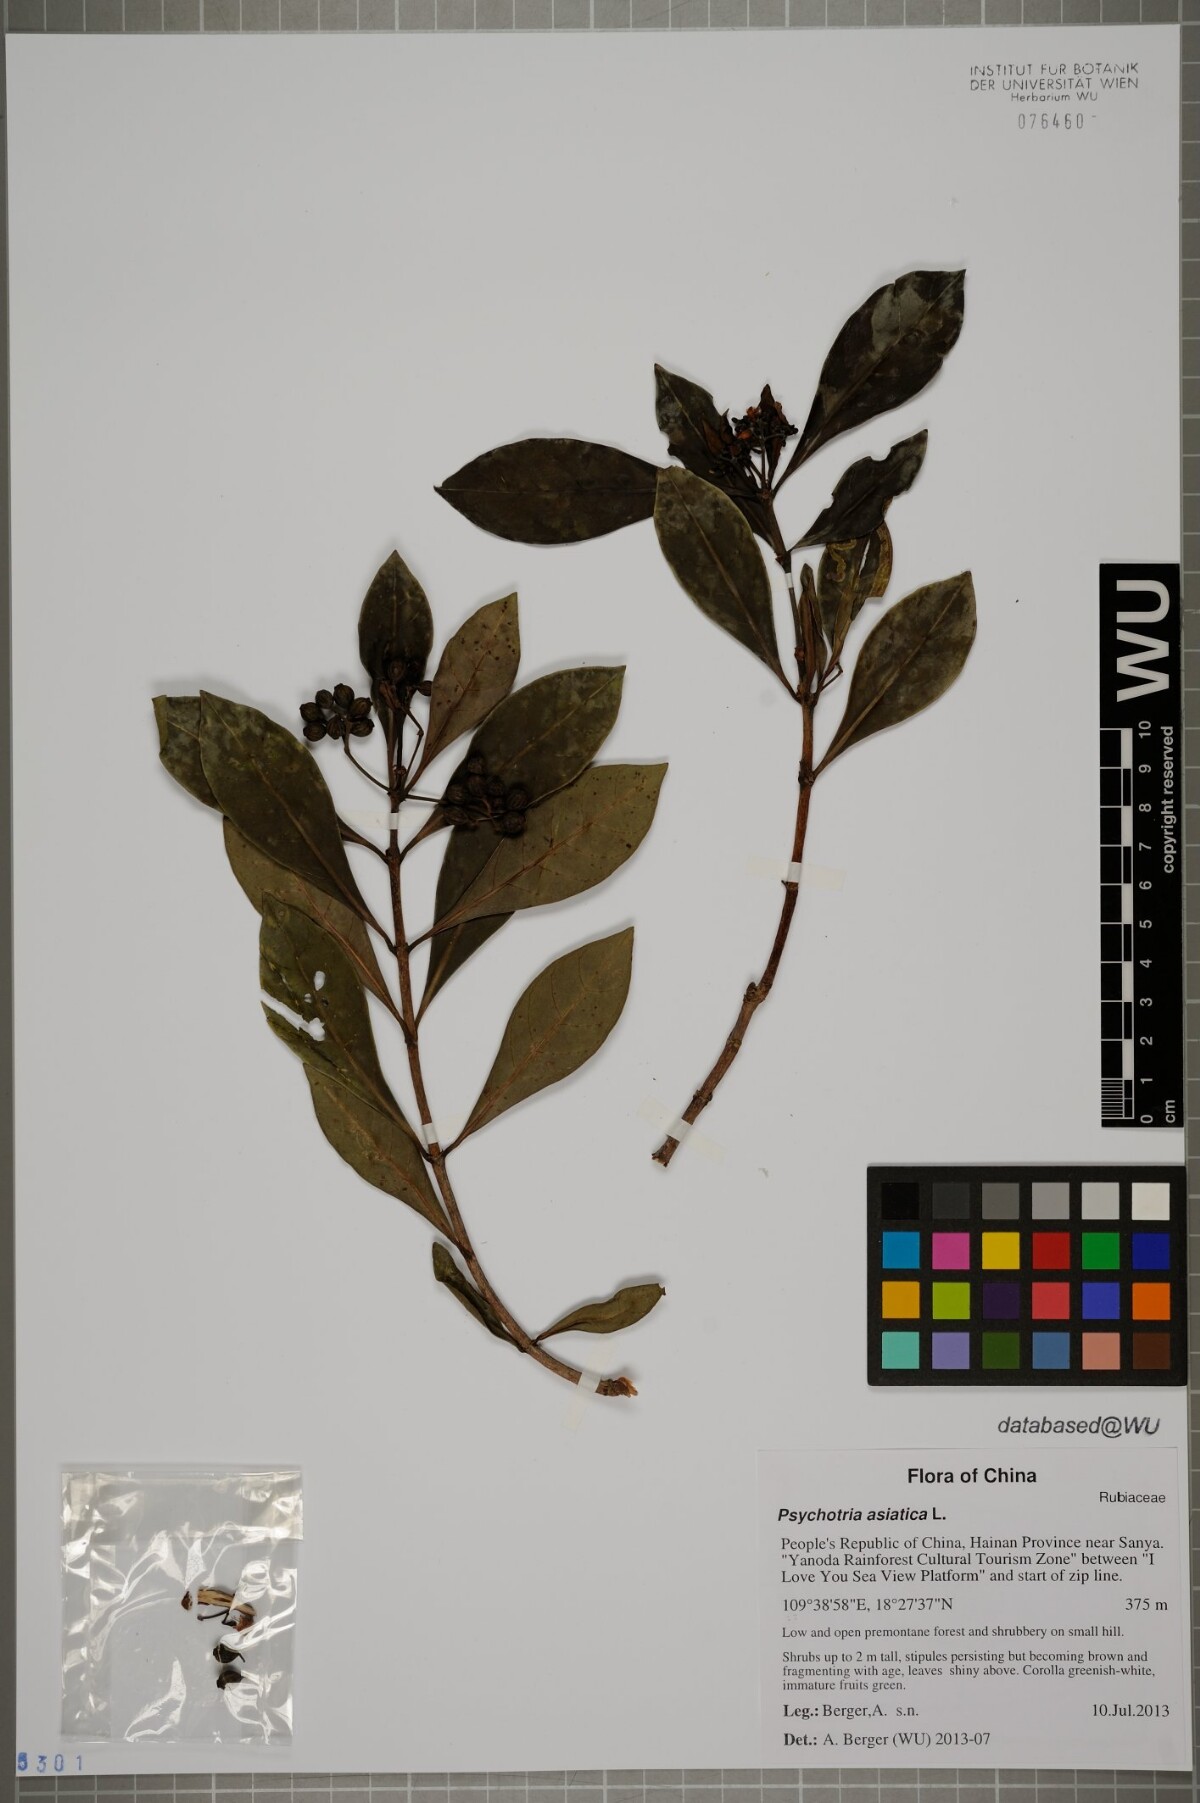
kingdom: Plantae
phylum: Tracheophyta
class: Magnoliopsida
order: Gentianales
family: Rubiaceae
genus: Psychotria
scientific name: Psychotria asiatica
